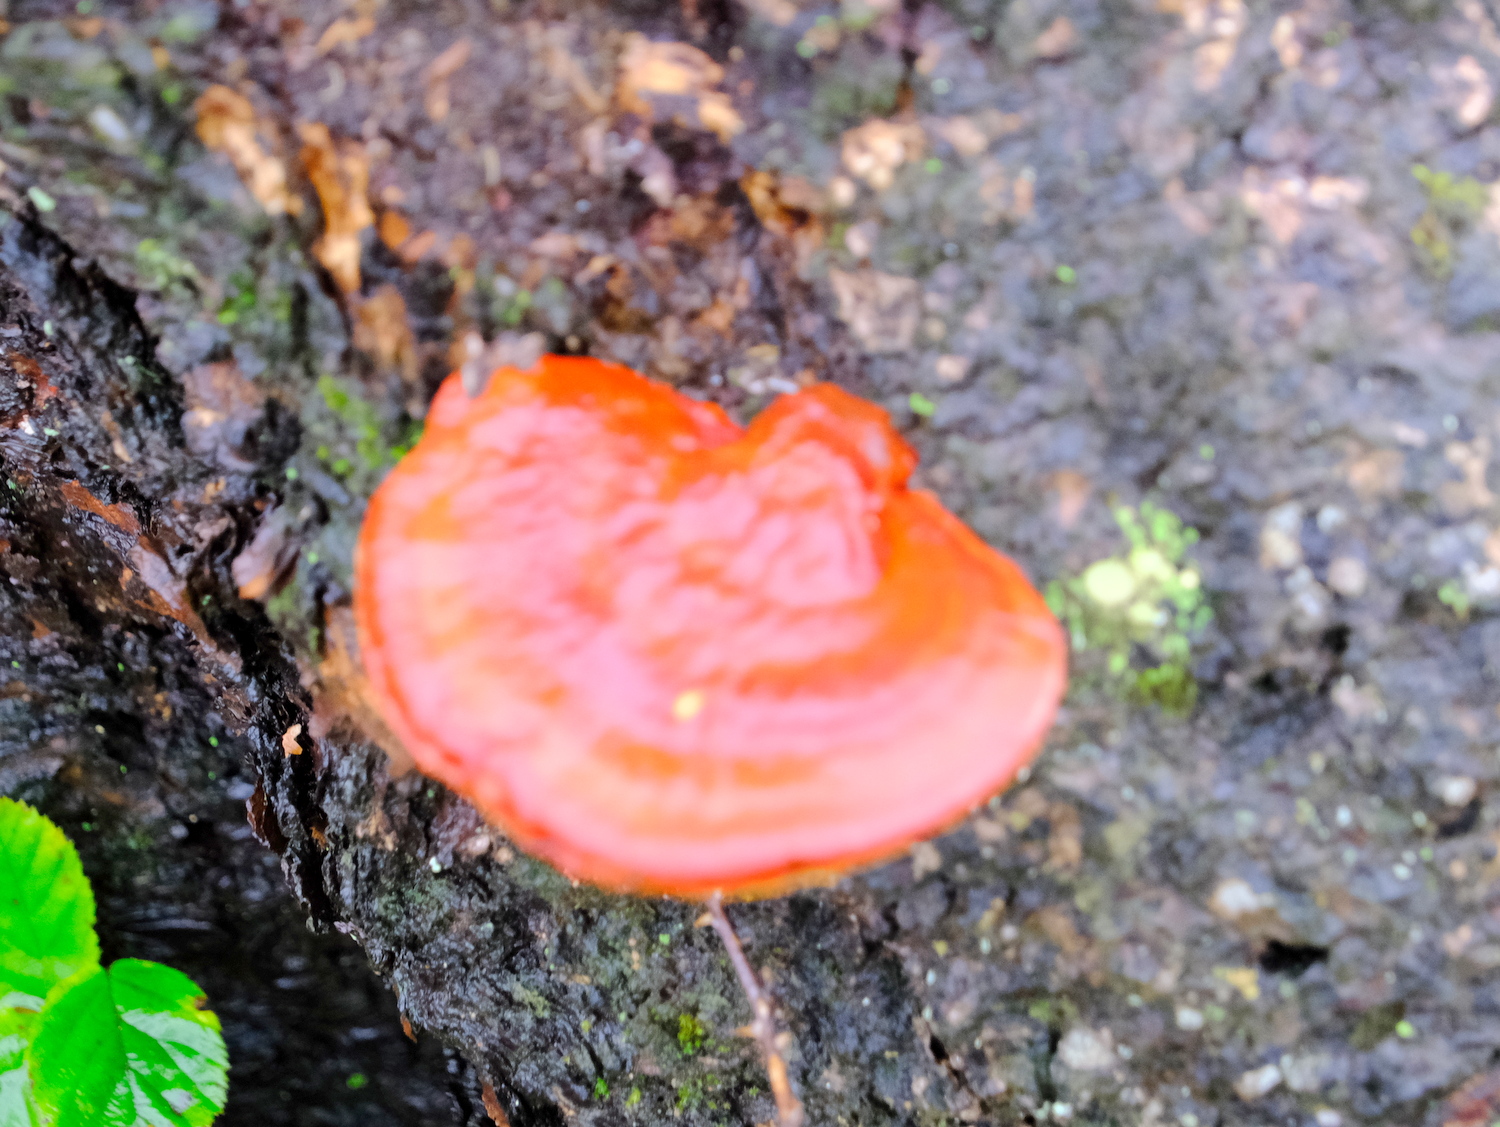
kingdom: Fungi
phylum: Basidiomycota
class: Agaricomycetes
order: Polyporales
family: Polyporaceae
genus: Ganoderma
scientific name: Ganoderma lucidum
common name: skinnende lakporesvamp
